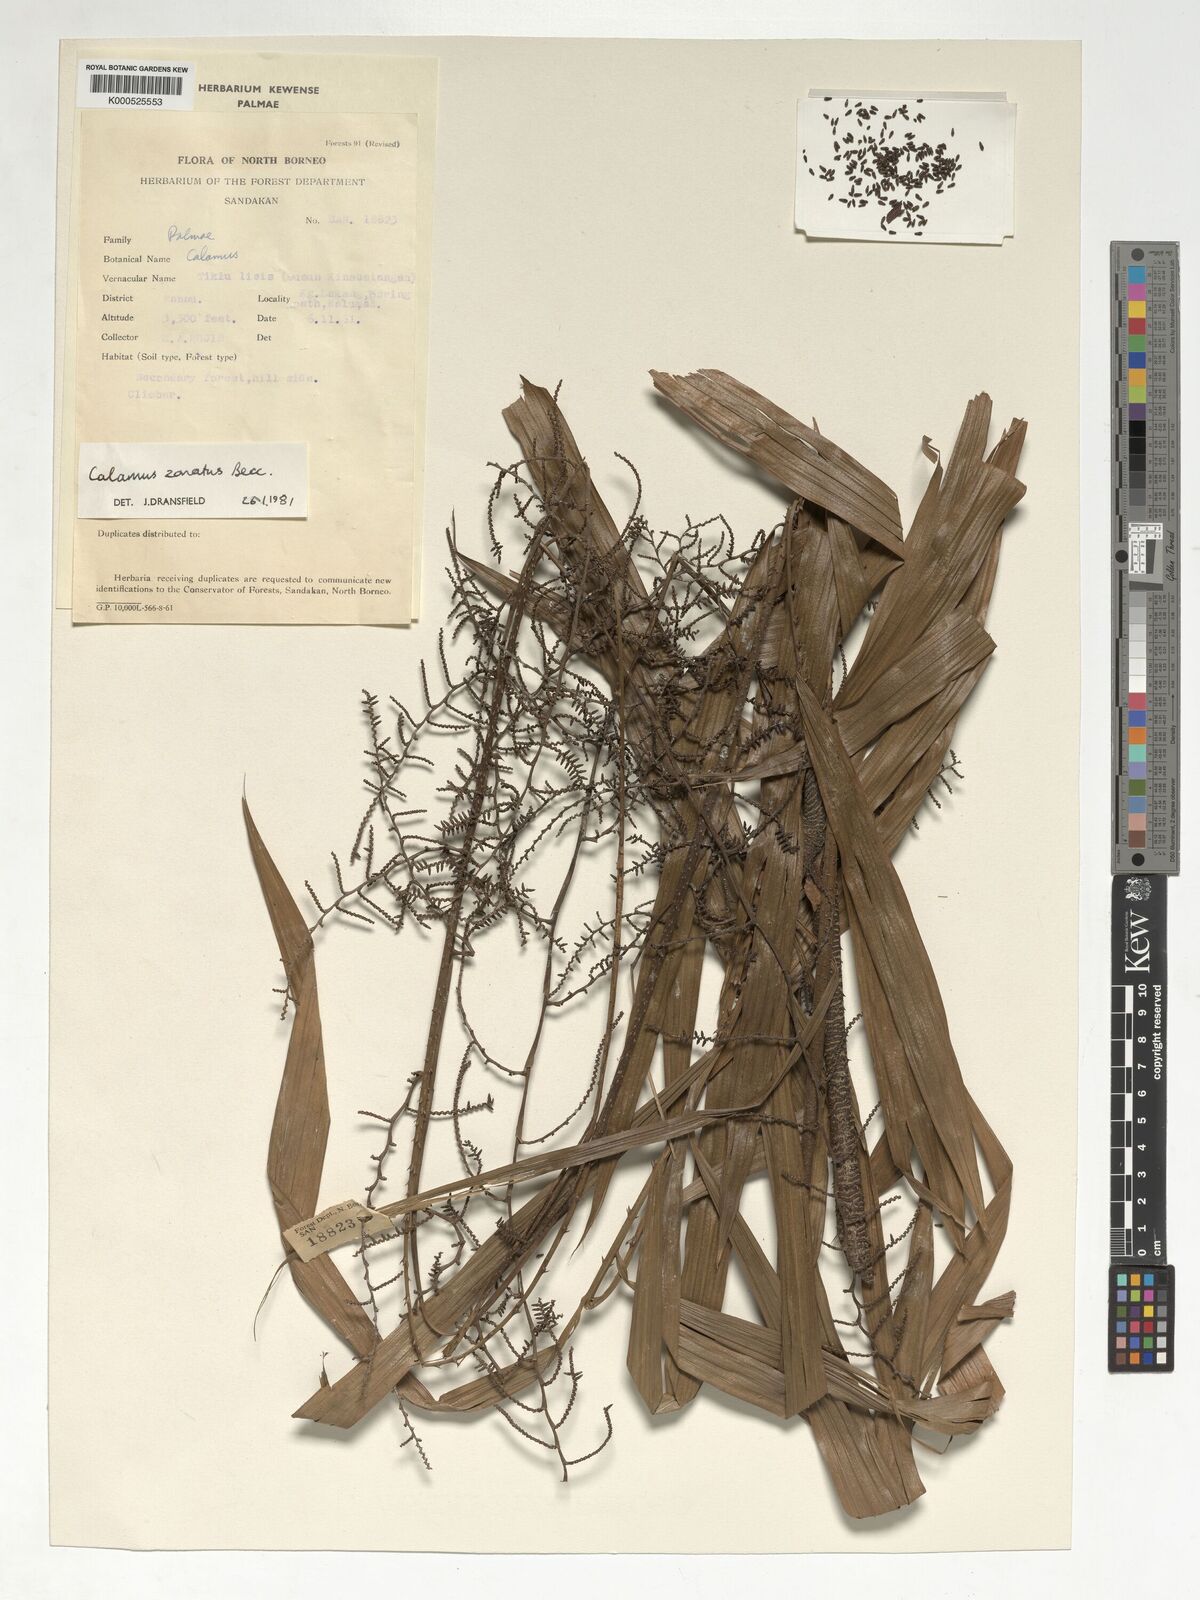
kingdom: Plantae
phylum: Tracheophyta
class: Liliopsida
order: Arecales
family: Arecaceae
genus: Calamus
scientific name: Calamus zonatus
